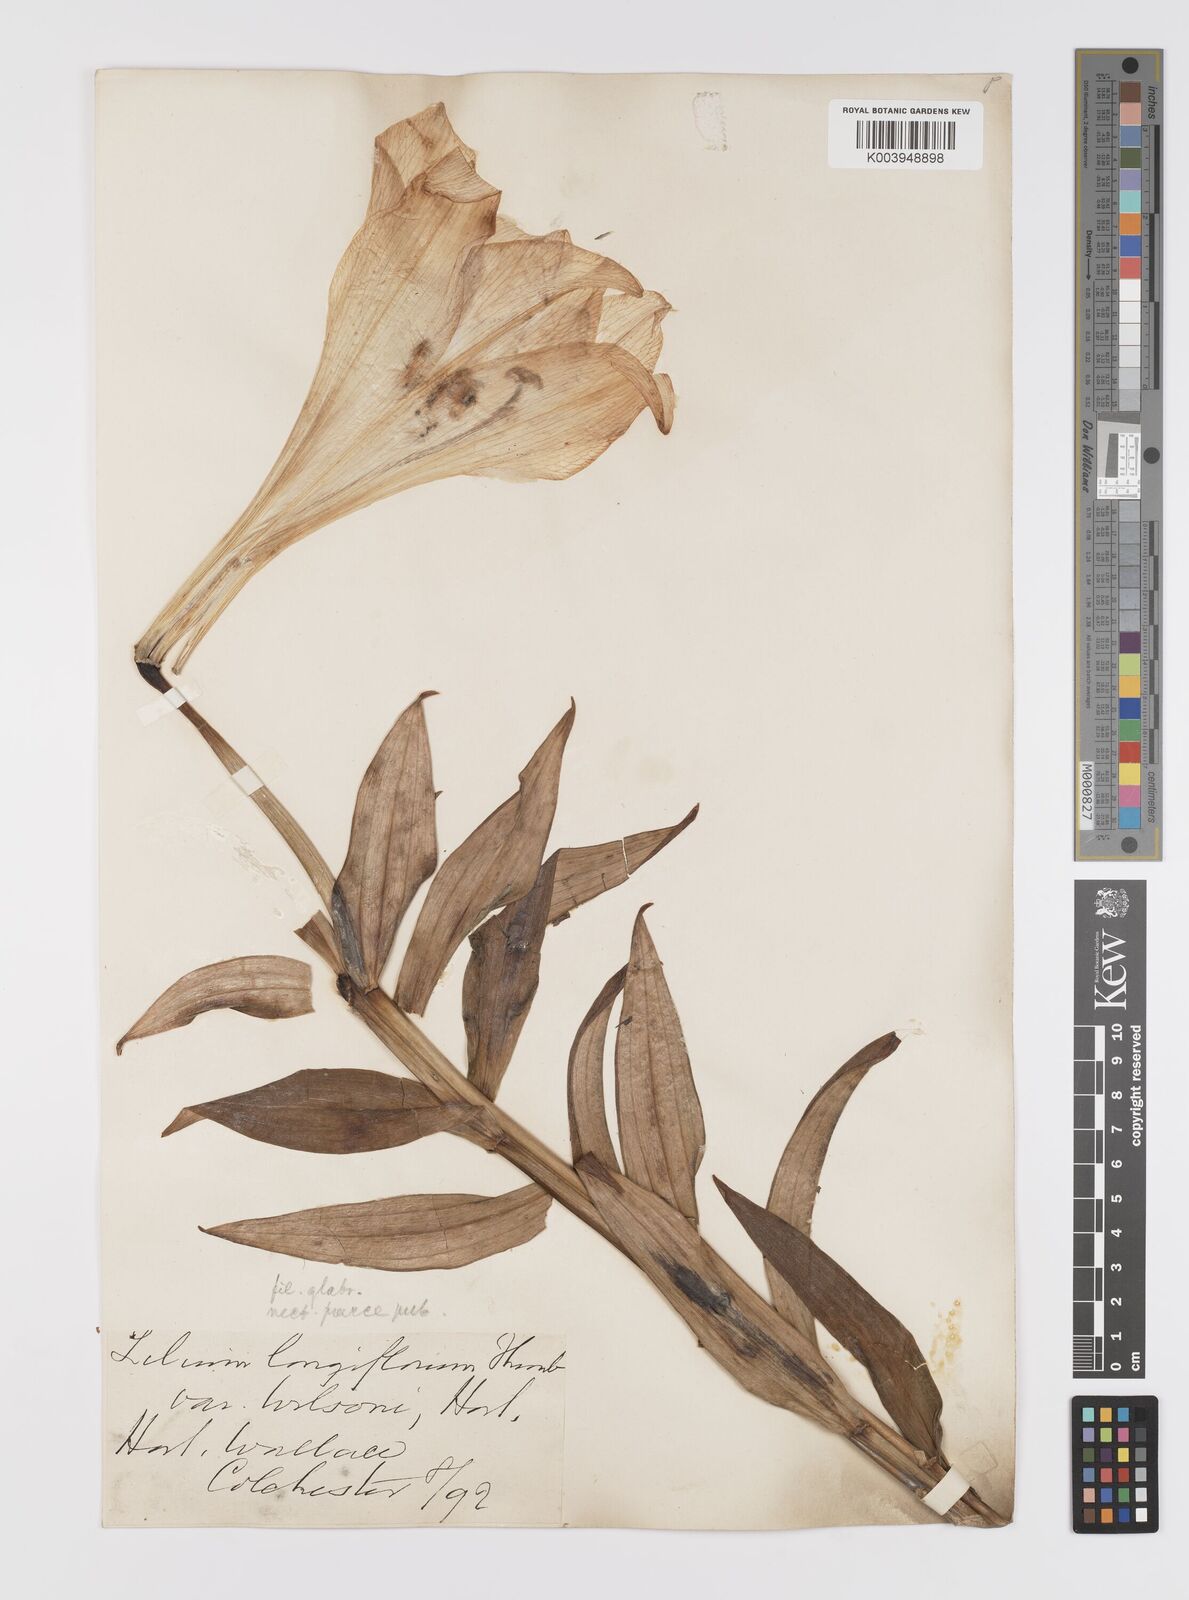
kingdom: Plantae
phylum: Tracheophyta
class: Liliopsida
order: Liliales
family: Liliaceae
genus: Lilium
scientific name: Lilium longiflorum
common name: Easter lily
